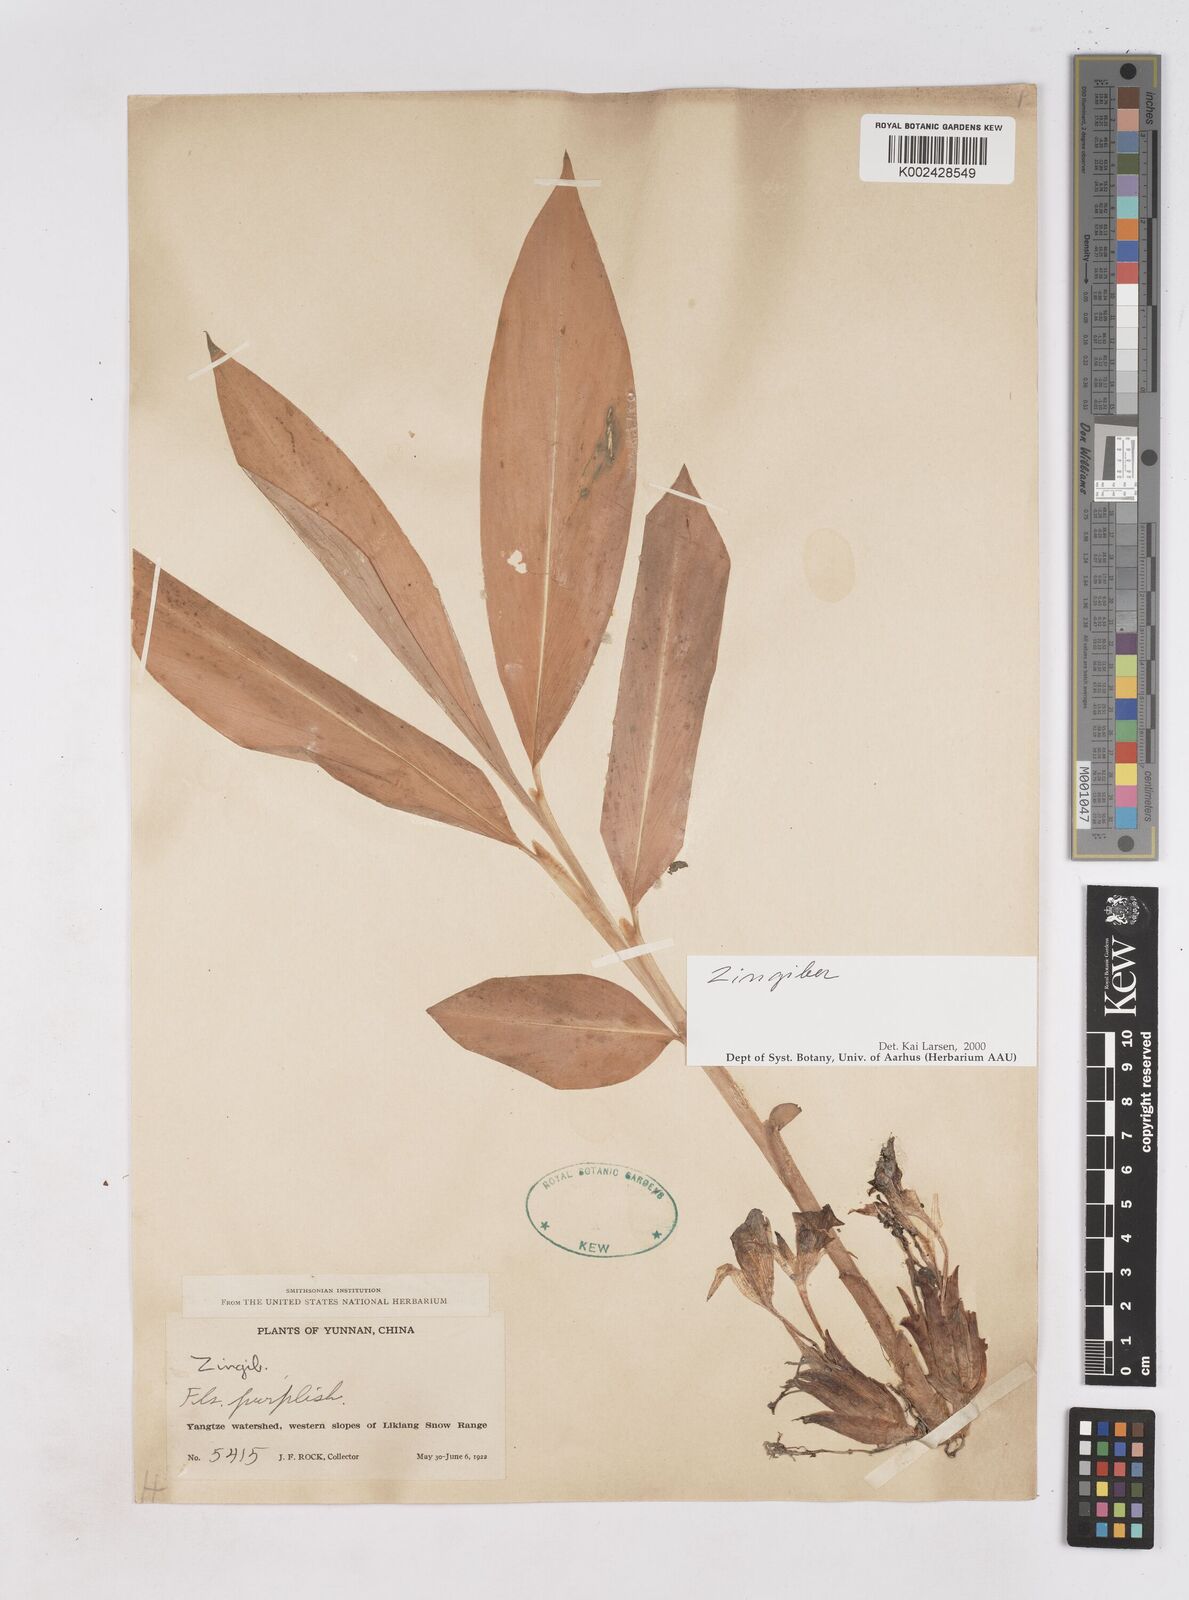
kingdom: Plantae
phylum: Tracheophyta
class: Liliopsida
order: Zingiberales
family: Zingiberaceae
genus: Zingiber
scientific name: Zingiber
